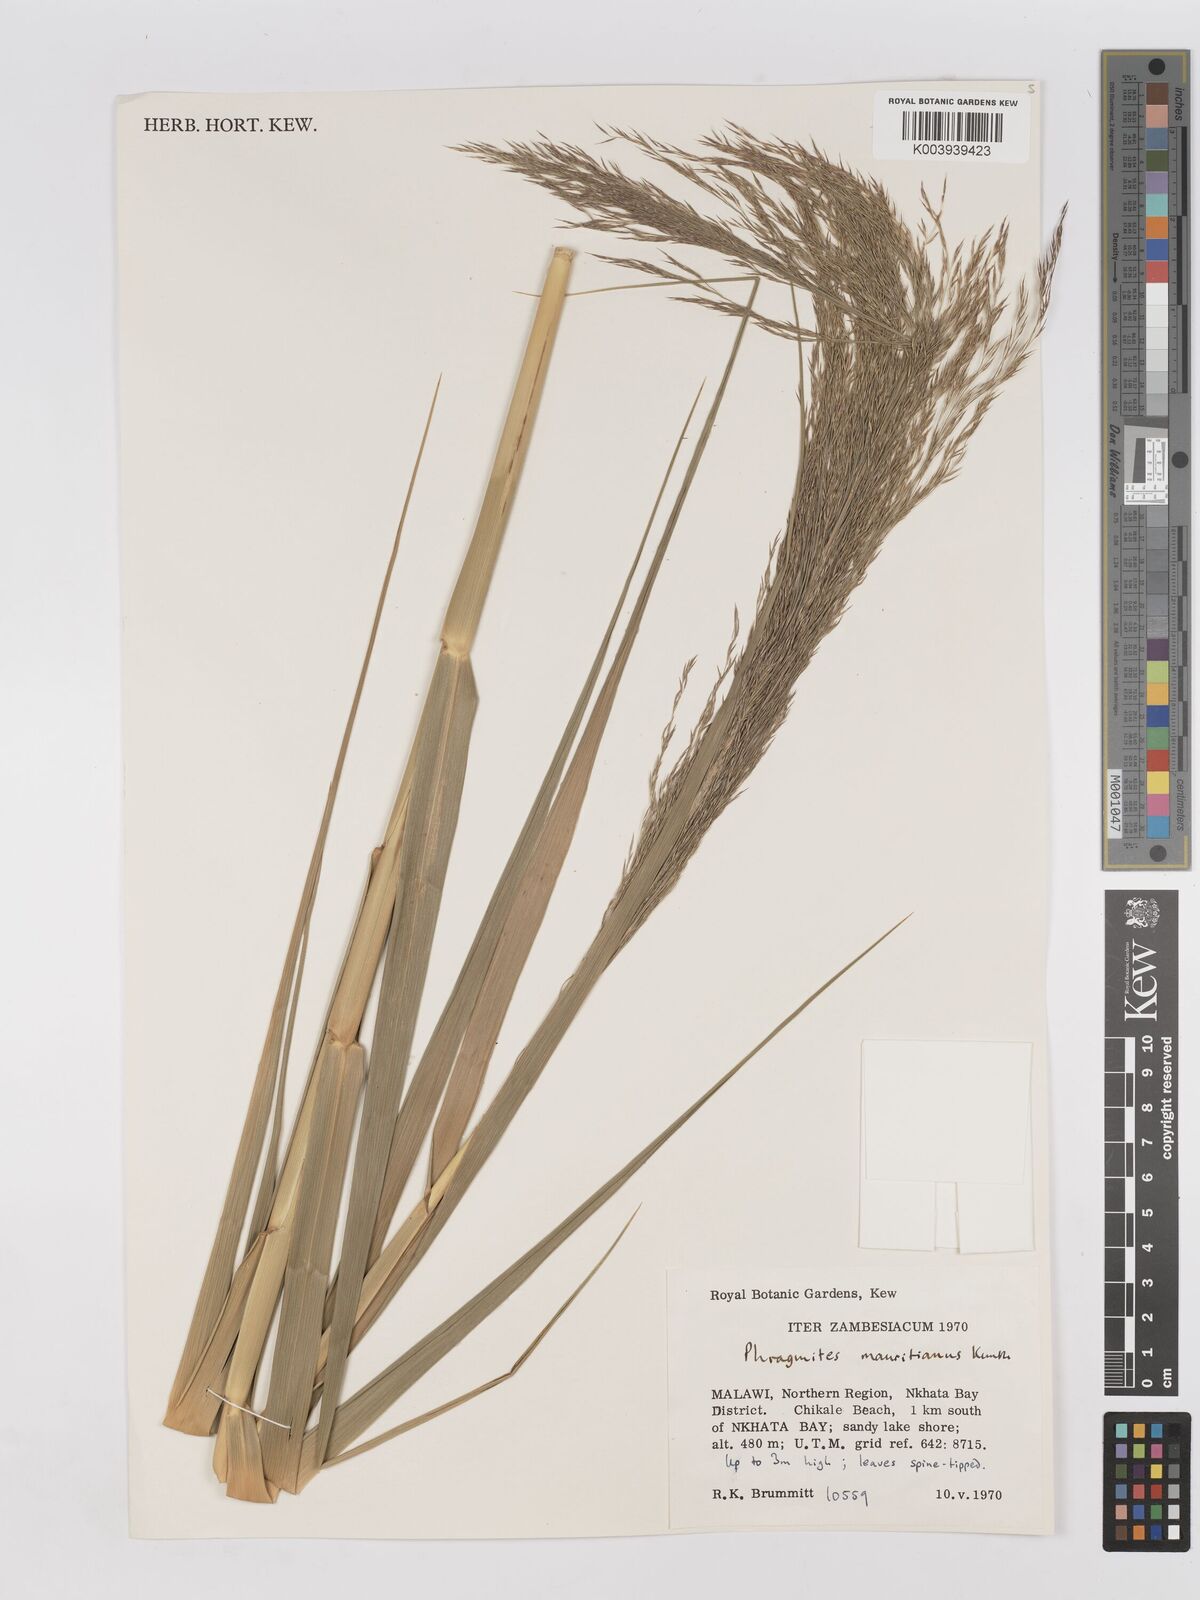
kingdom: Plantae
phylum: Tracheophyta
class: Liliopsida
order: Poales
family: Poaceae
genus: Phragmites
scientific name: Phragmites mauritianus
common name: Reed grass
